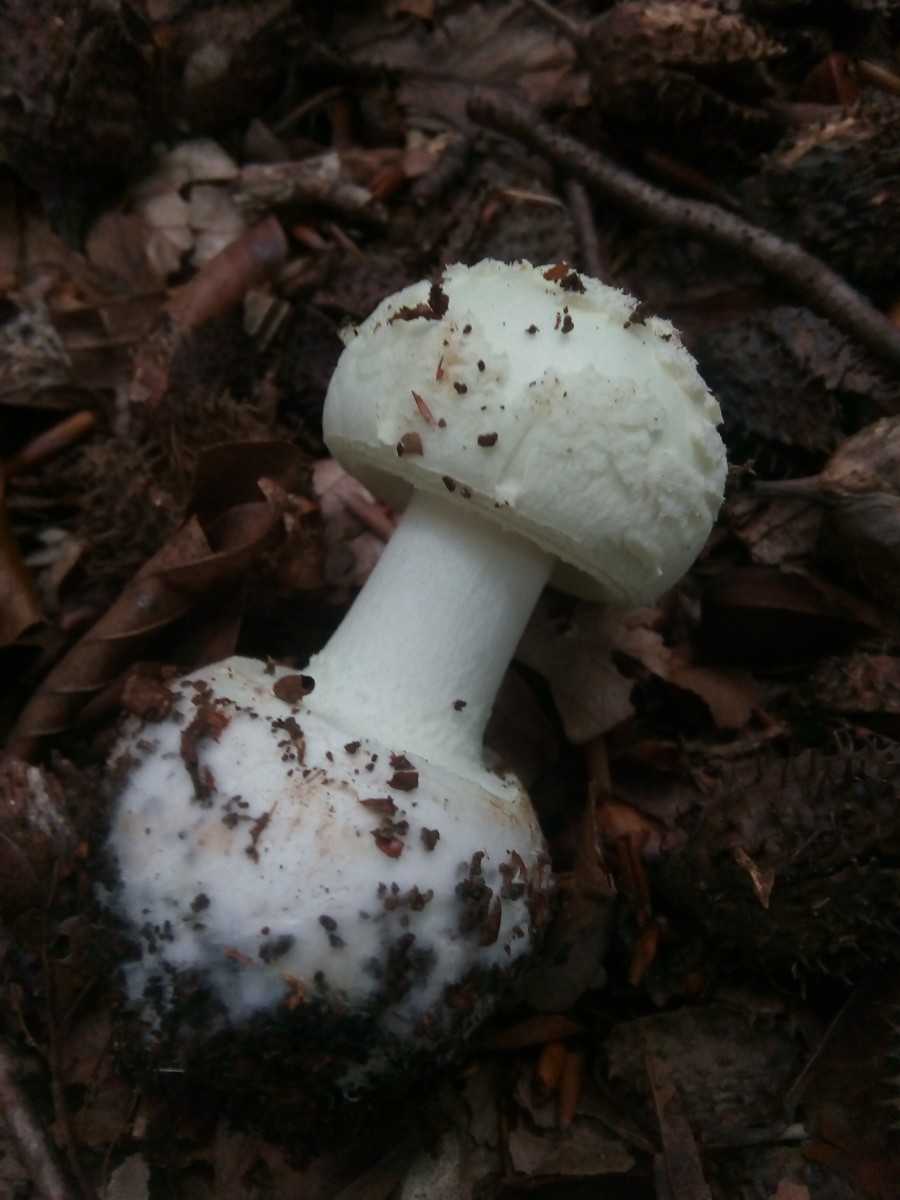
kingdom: Fungi
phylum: Basidiomycota
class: Agaricomycetes
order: Agaricales
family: Amanitaceae
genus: Amanita
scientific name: Amanita citrina
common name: kugleknoldet fluesvamp
